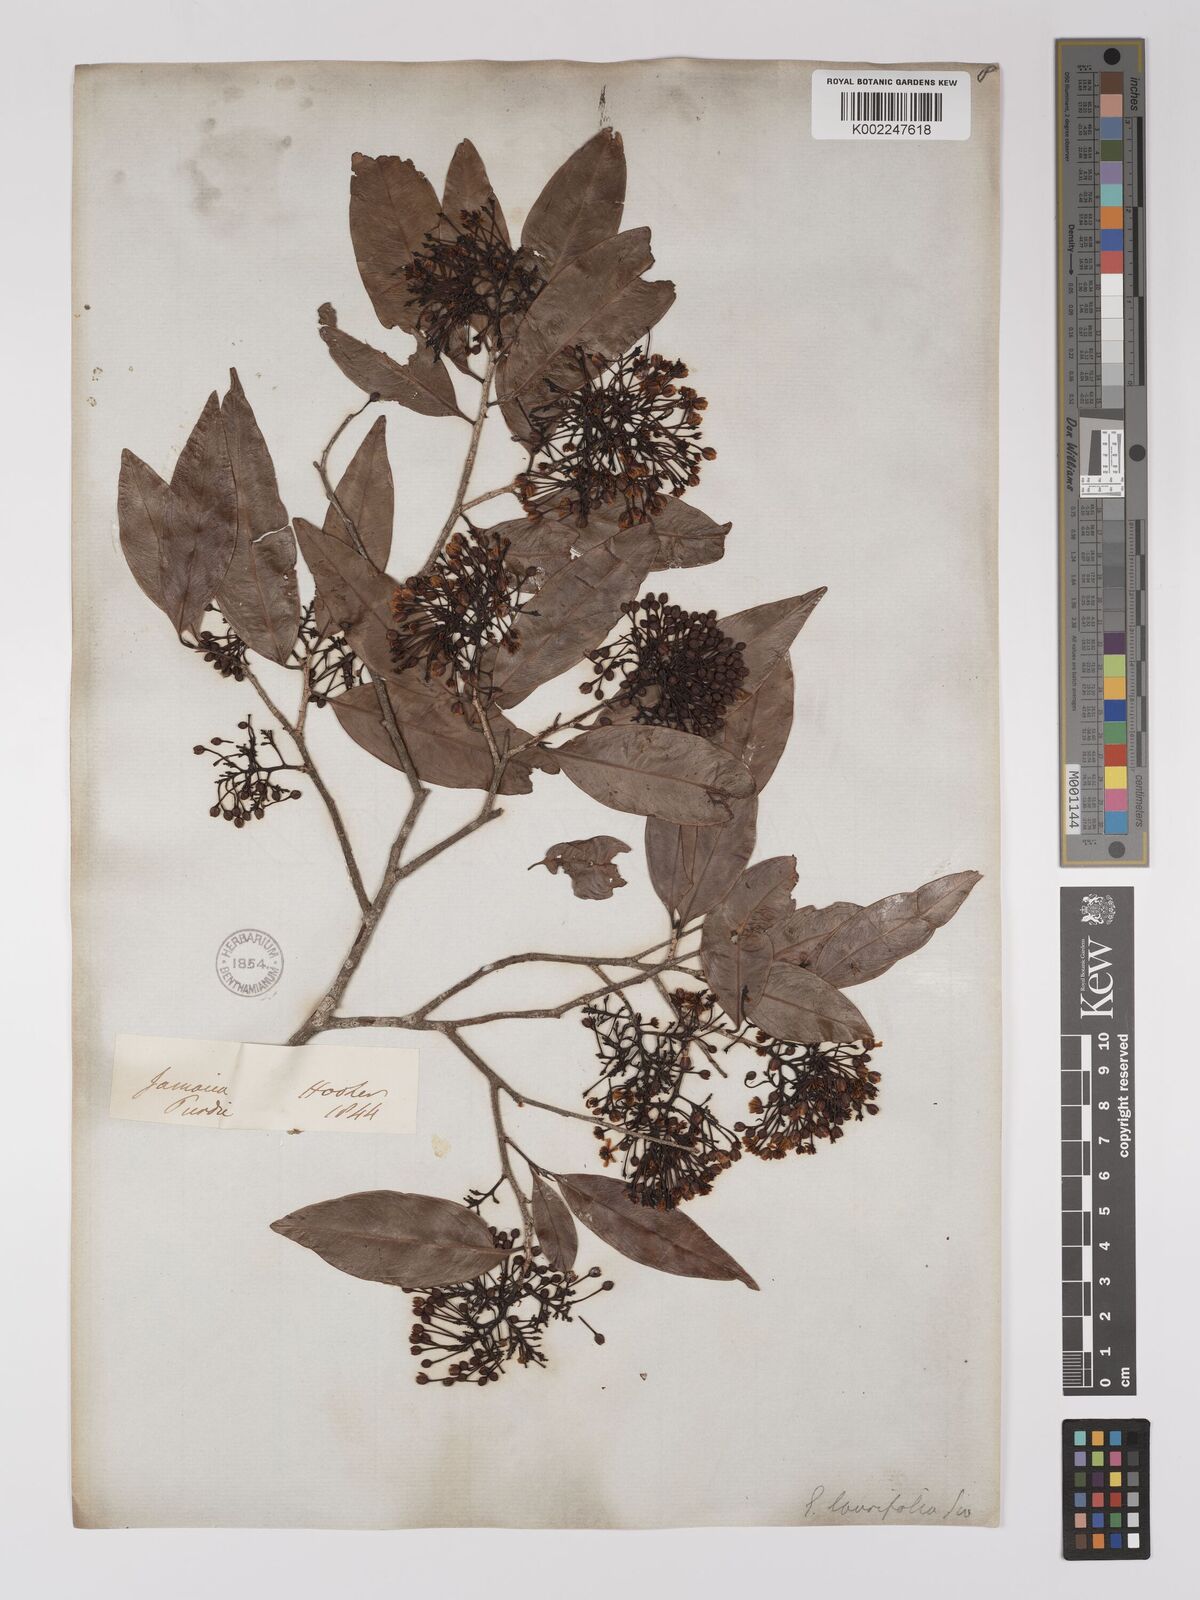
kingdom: Plantae
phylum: Tracheophyta
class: Magnoliopsida
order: Malpighiales
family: Ochnaceae
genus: Ouratea
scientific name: Ouratea laurifolia
